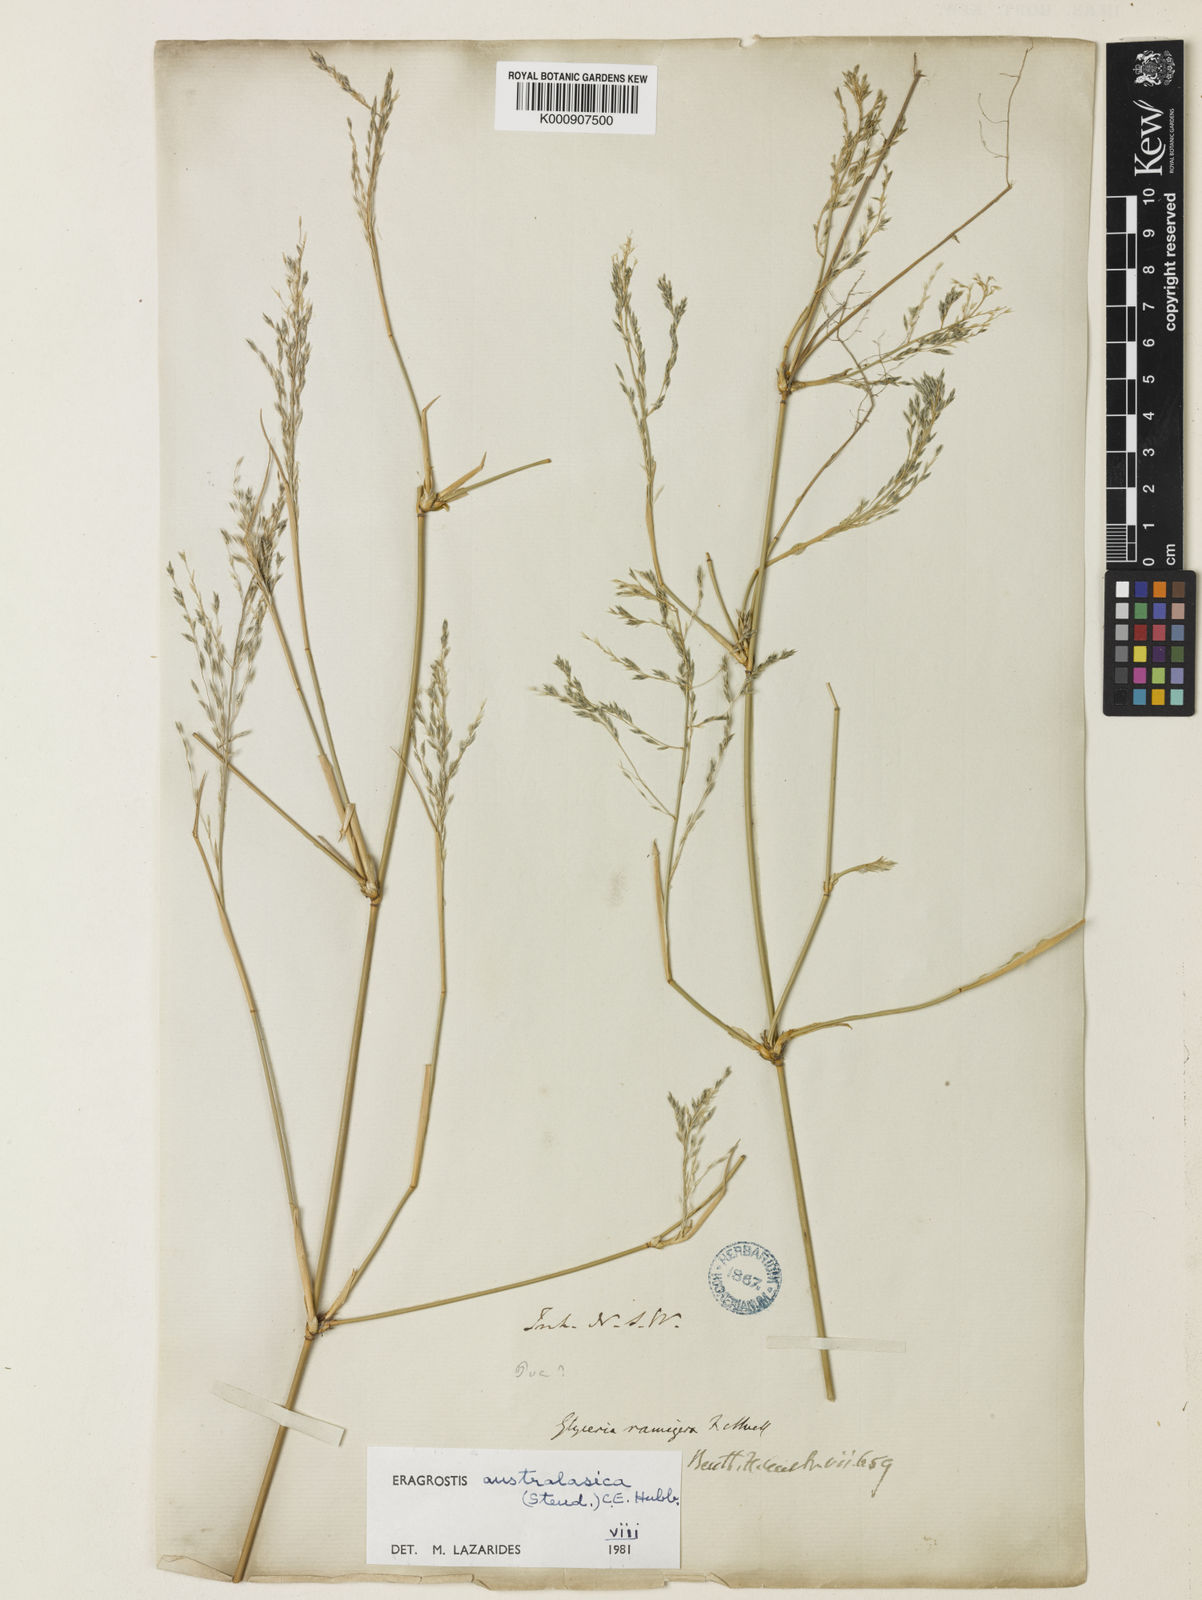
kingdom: Plantae
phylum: Tracheophyta
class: Liliopsida
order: Poales
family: Poaceae
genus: Sporobolus
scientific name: Sporobolus ramigerus
